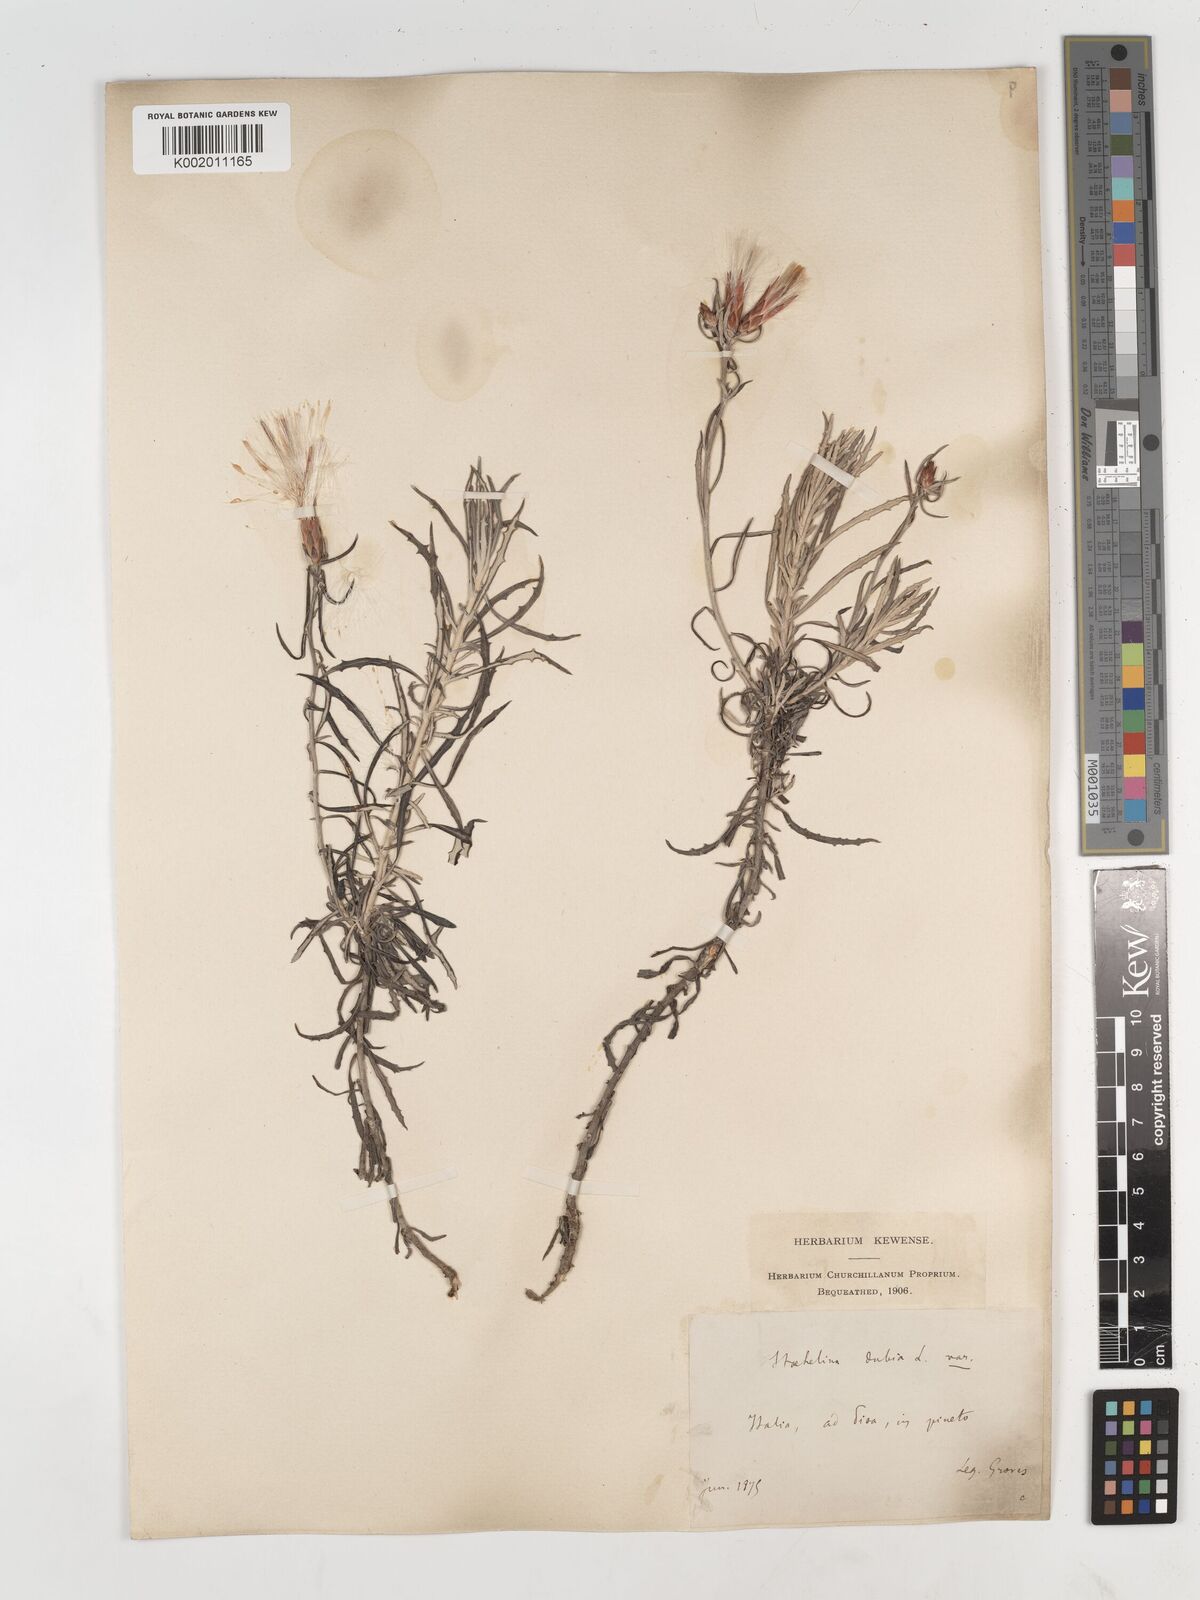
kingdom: Plantae
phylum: Tracheophyta
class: Magnoliopsida
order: Asterales
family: Asteraceae
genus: Staehelina
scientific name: Staehelina dubia
